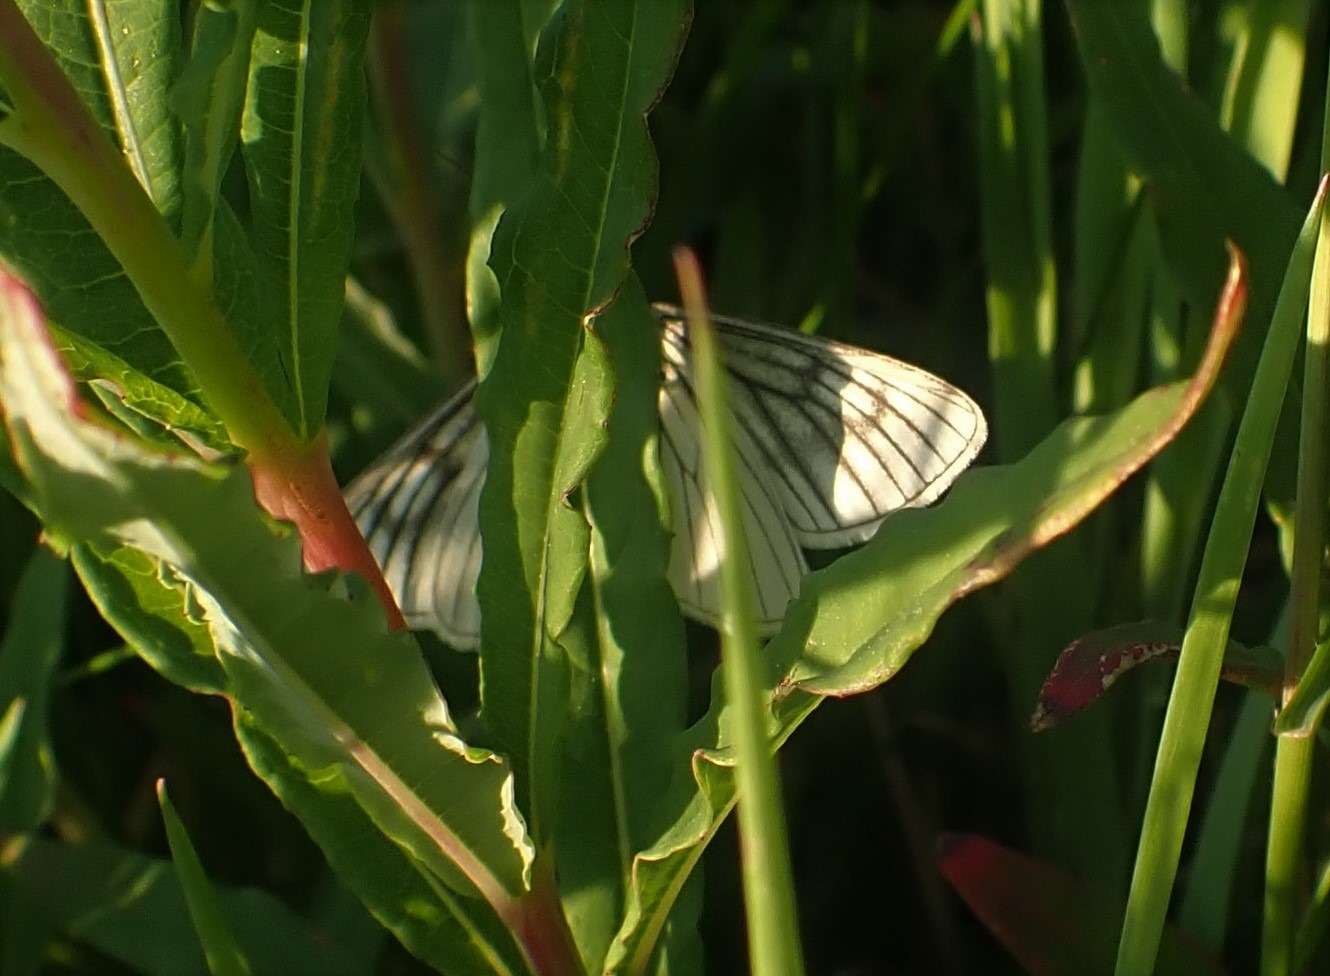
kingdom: Animalia
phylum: Arthropoda
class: Insecta
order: Lepidoptera
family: Geometridae
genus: Siona
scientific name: Siona lineata
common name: Hvidvingemåler
